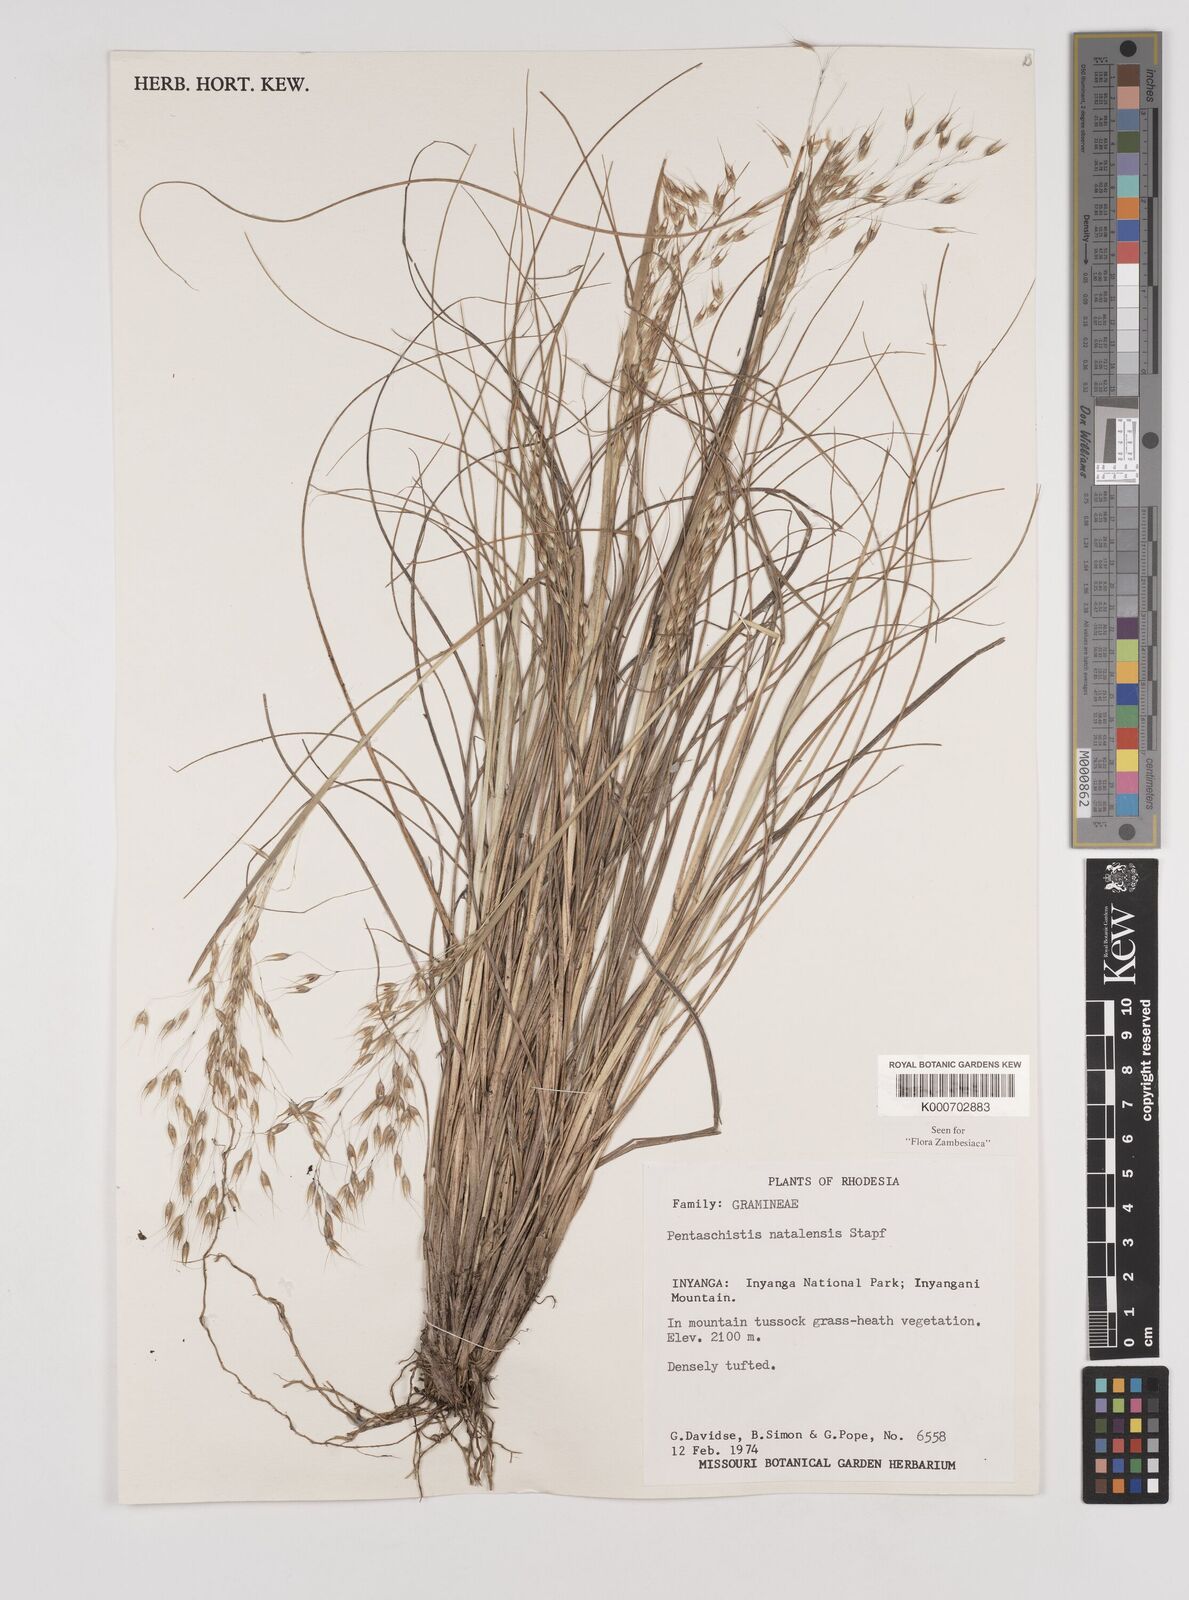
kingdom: Plantae
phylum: Tracheophyta
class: Liliopsida
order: Poales
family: Poaceae
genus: Pentameris
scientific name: Pentameris natalensis
